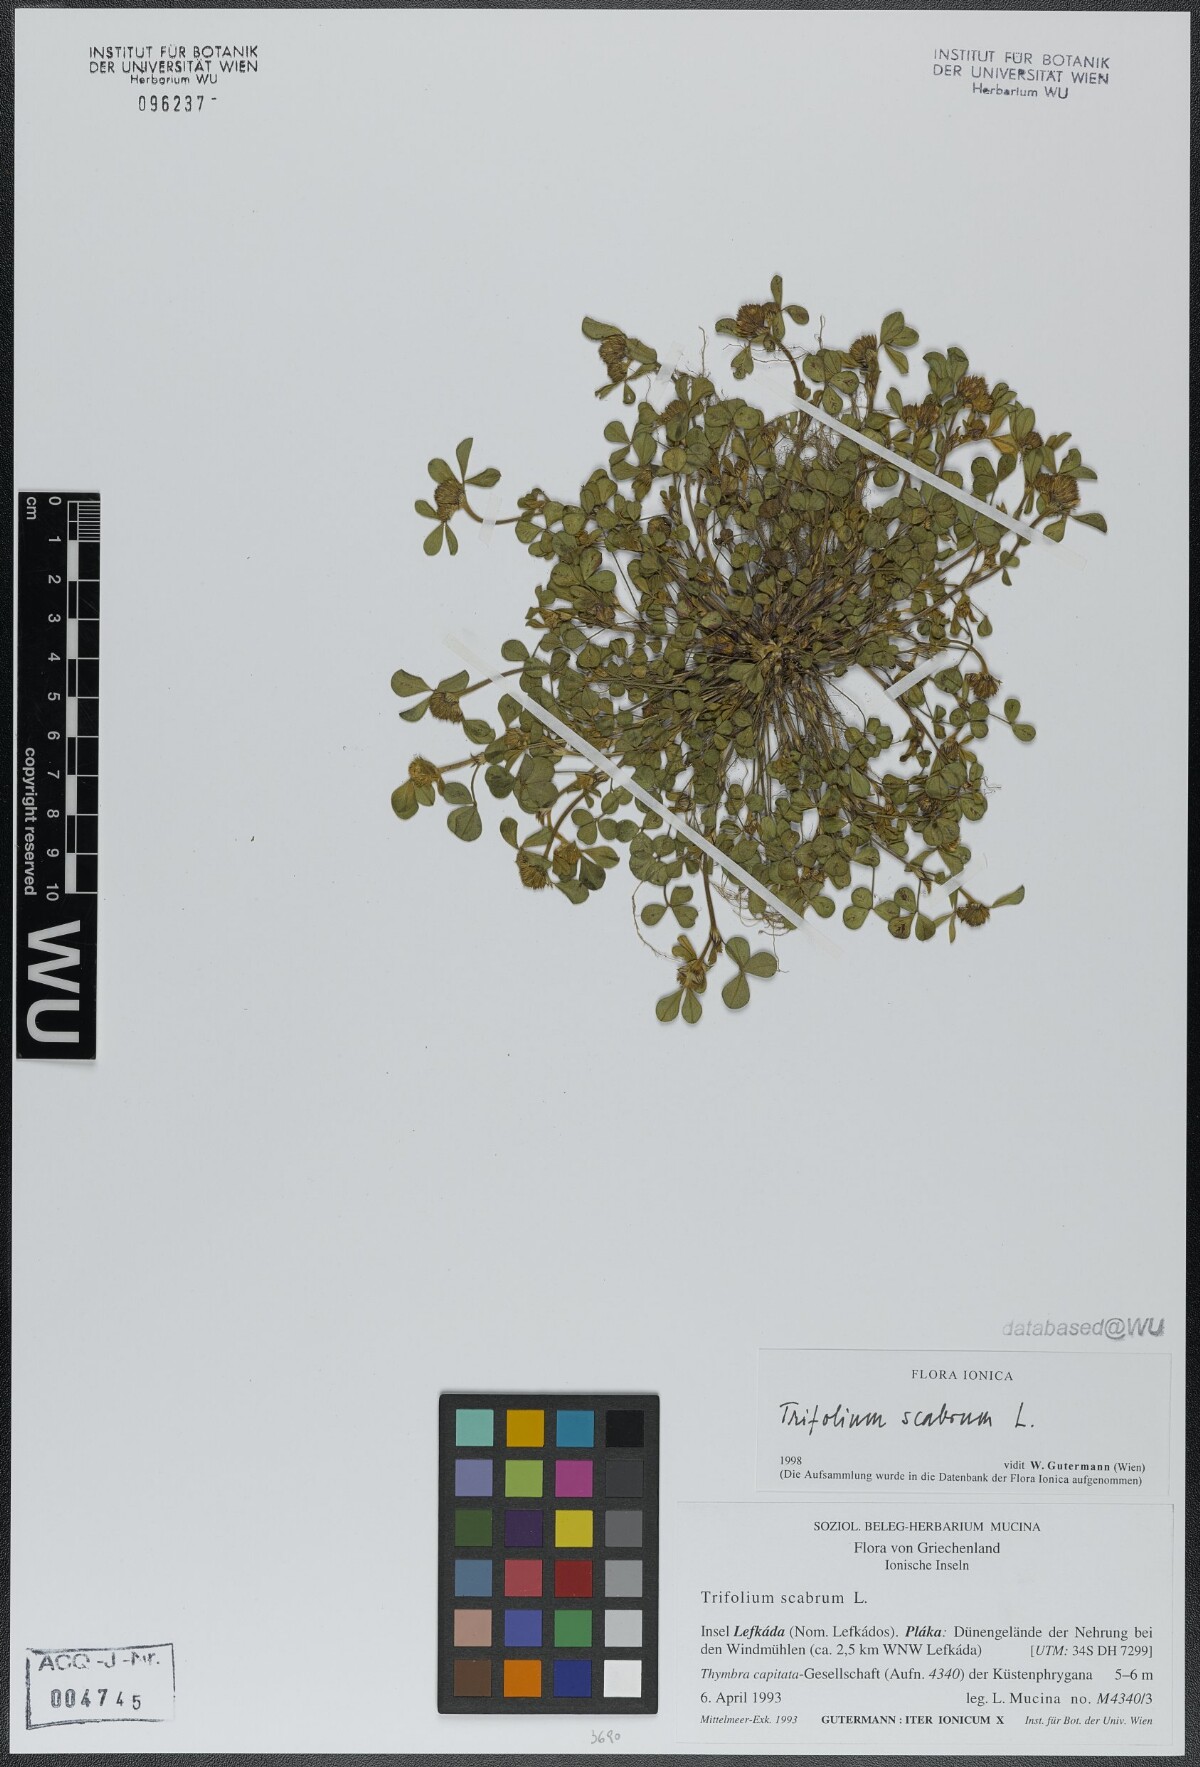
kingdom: Plantae
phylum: Tracheophyta
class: Magnoliopsida
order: Fabales
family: Fabaceae
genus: Trifolium
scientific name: Trifolium scabrum
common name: Rough clover
